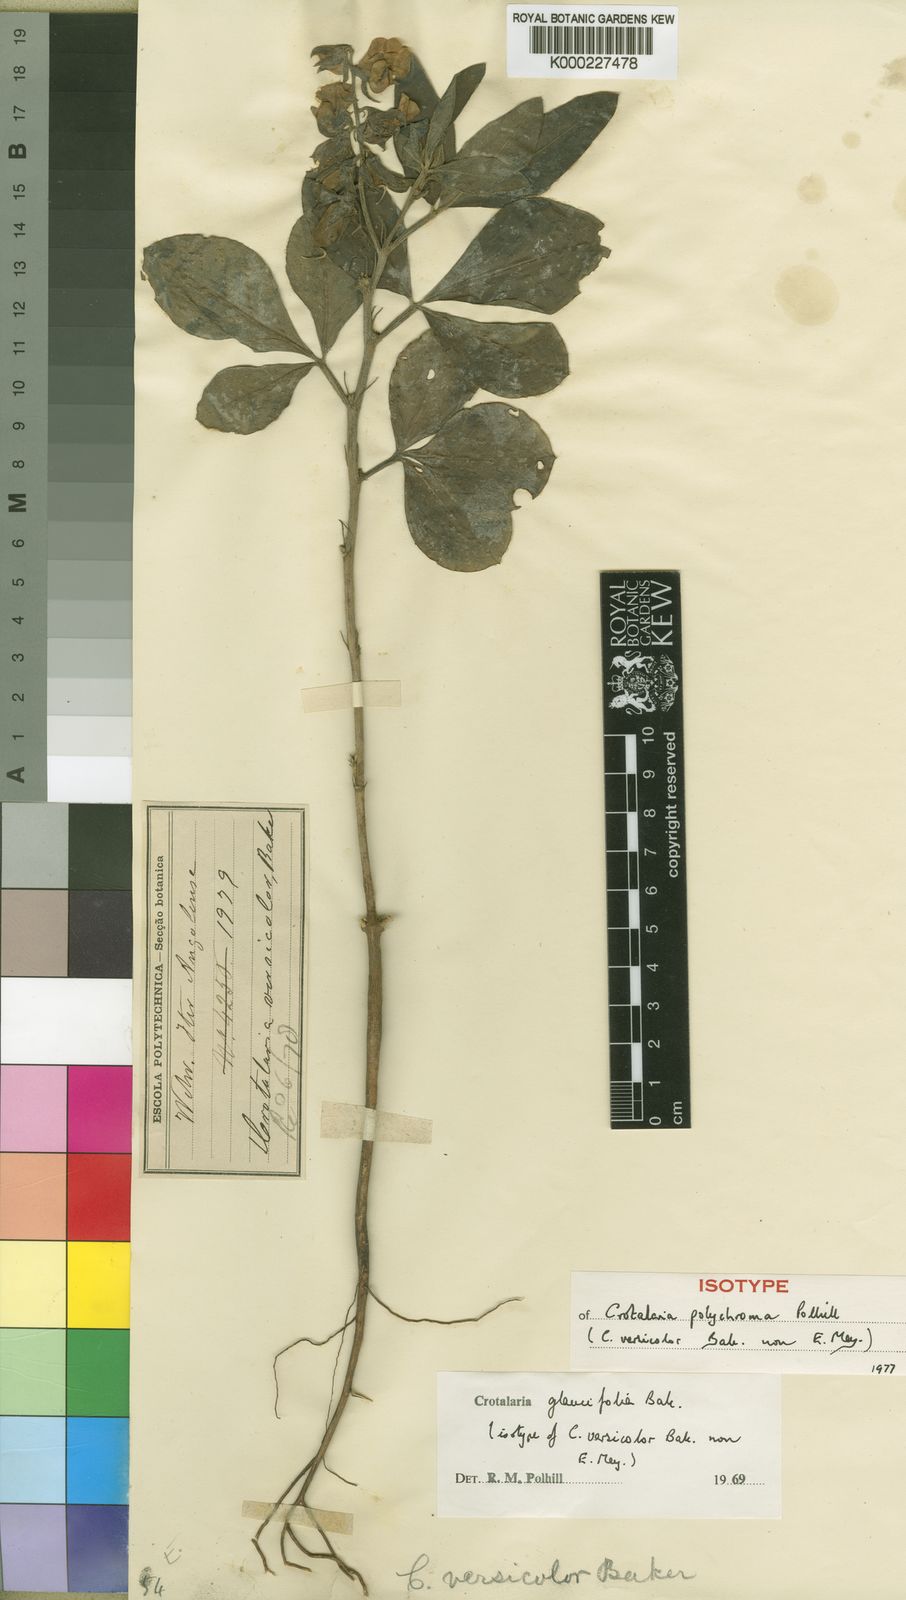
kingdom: Plantae
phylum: Tracheophyta
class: Magnoliopsida
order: Fabales
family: Fabaceae
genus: Crotalaria
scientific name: Crotalaria polychroma
